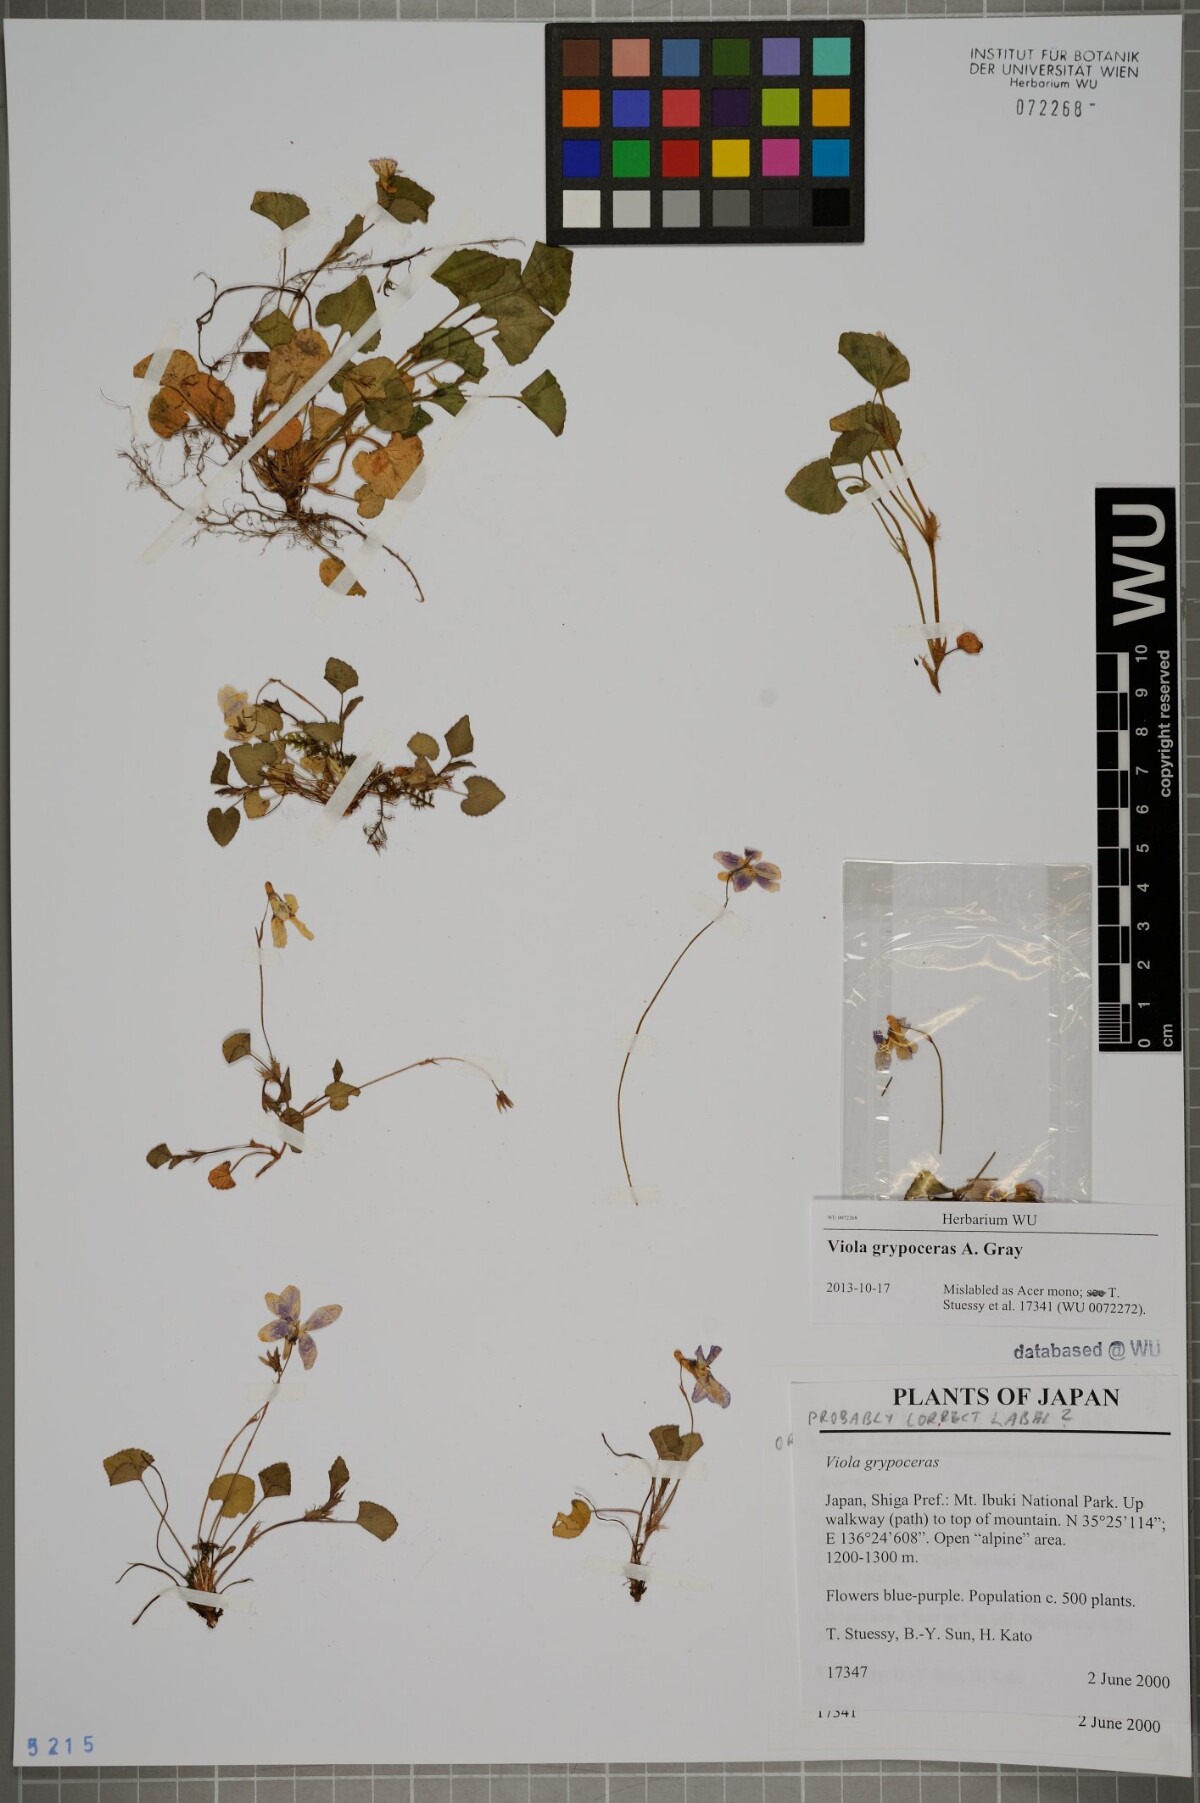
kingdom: Plantae
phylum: Tracheophyta
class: Magnoliopsida
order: Malpighiales
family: Violaceae
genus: Viola
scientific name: Viola grypoceras
